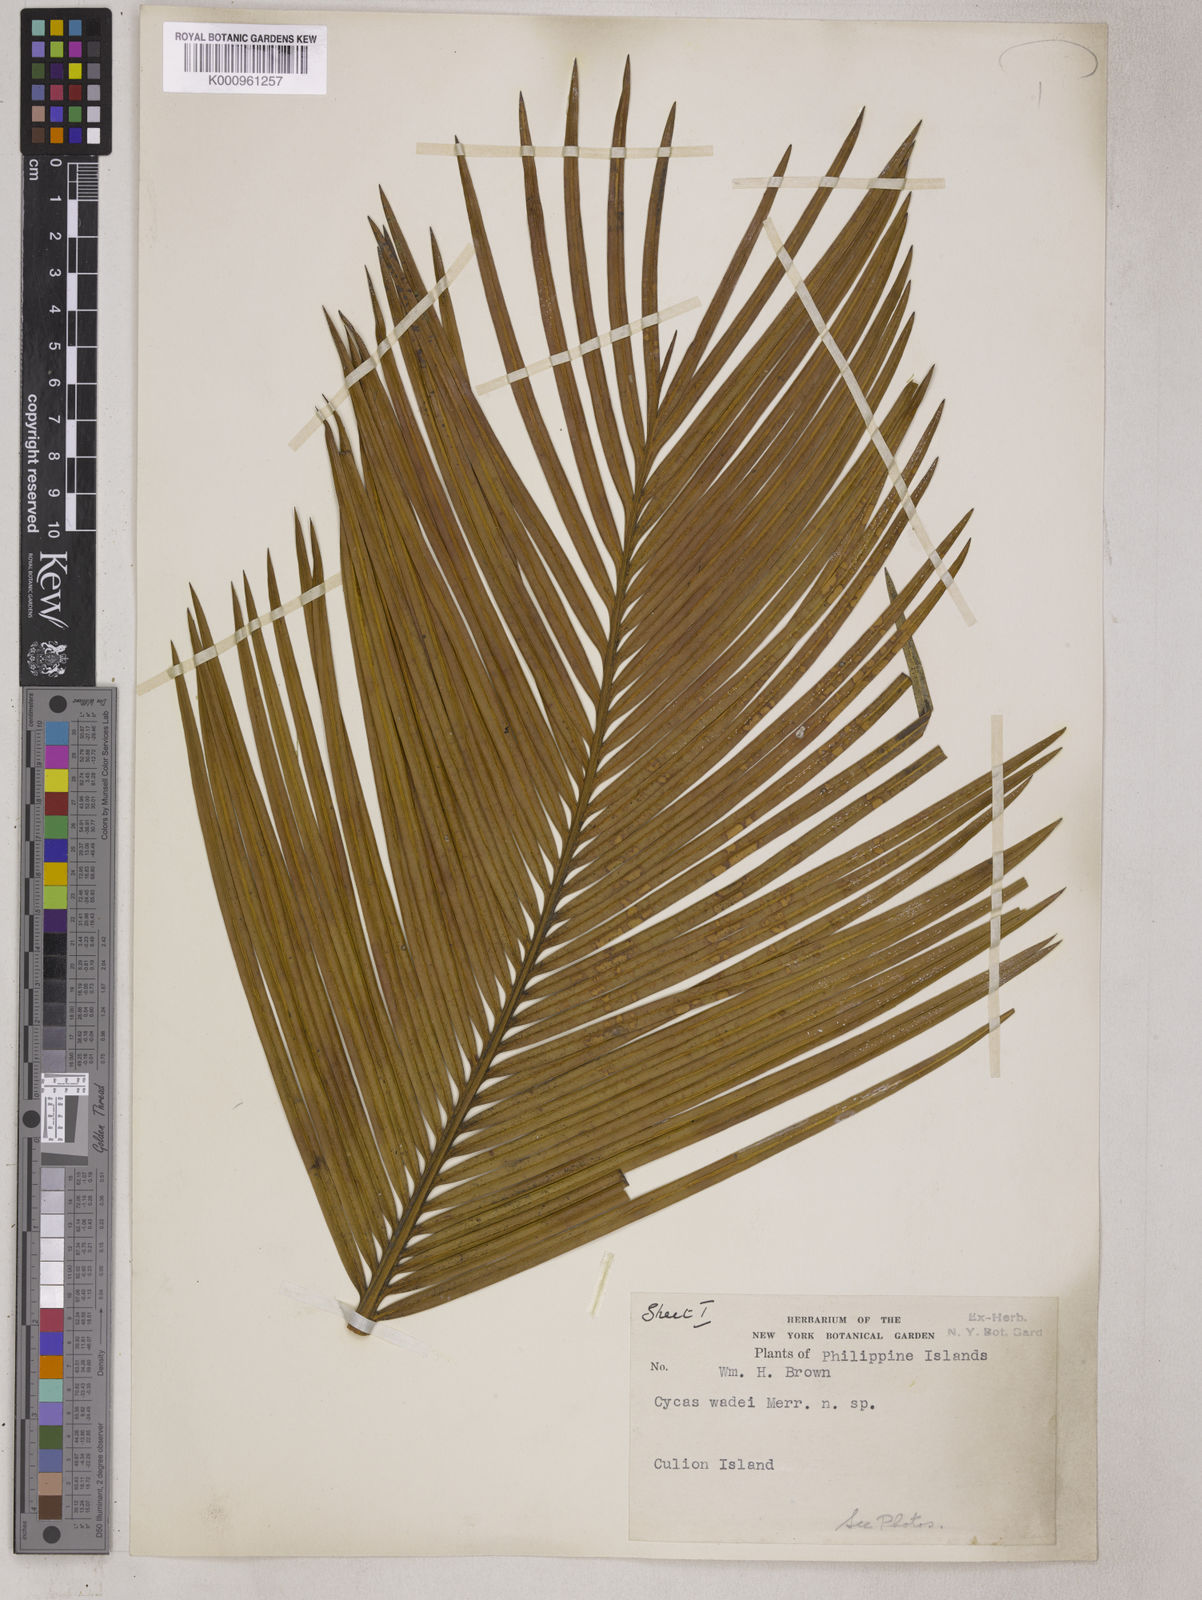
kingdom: Plantae
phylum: Tracheophyta
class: Cycadopsida
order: Cycadales
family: Cycadaceae
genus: Cycas
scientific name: Cycas wadei
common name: Wade’s pitogo
